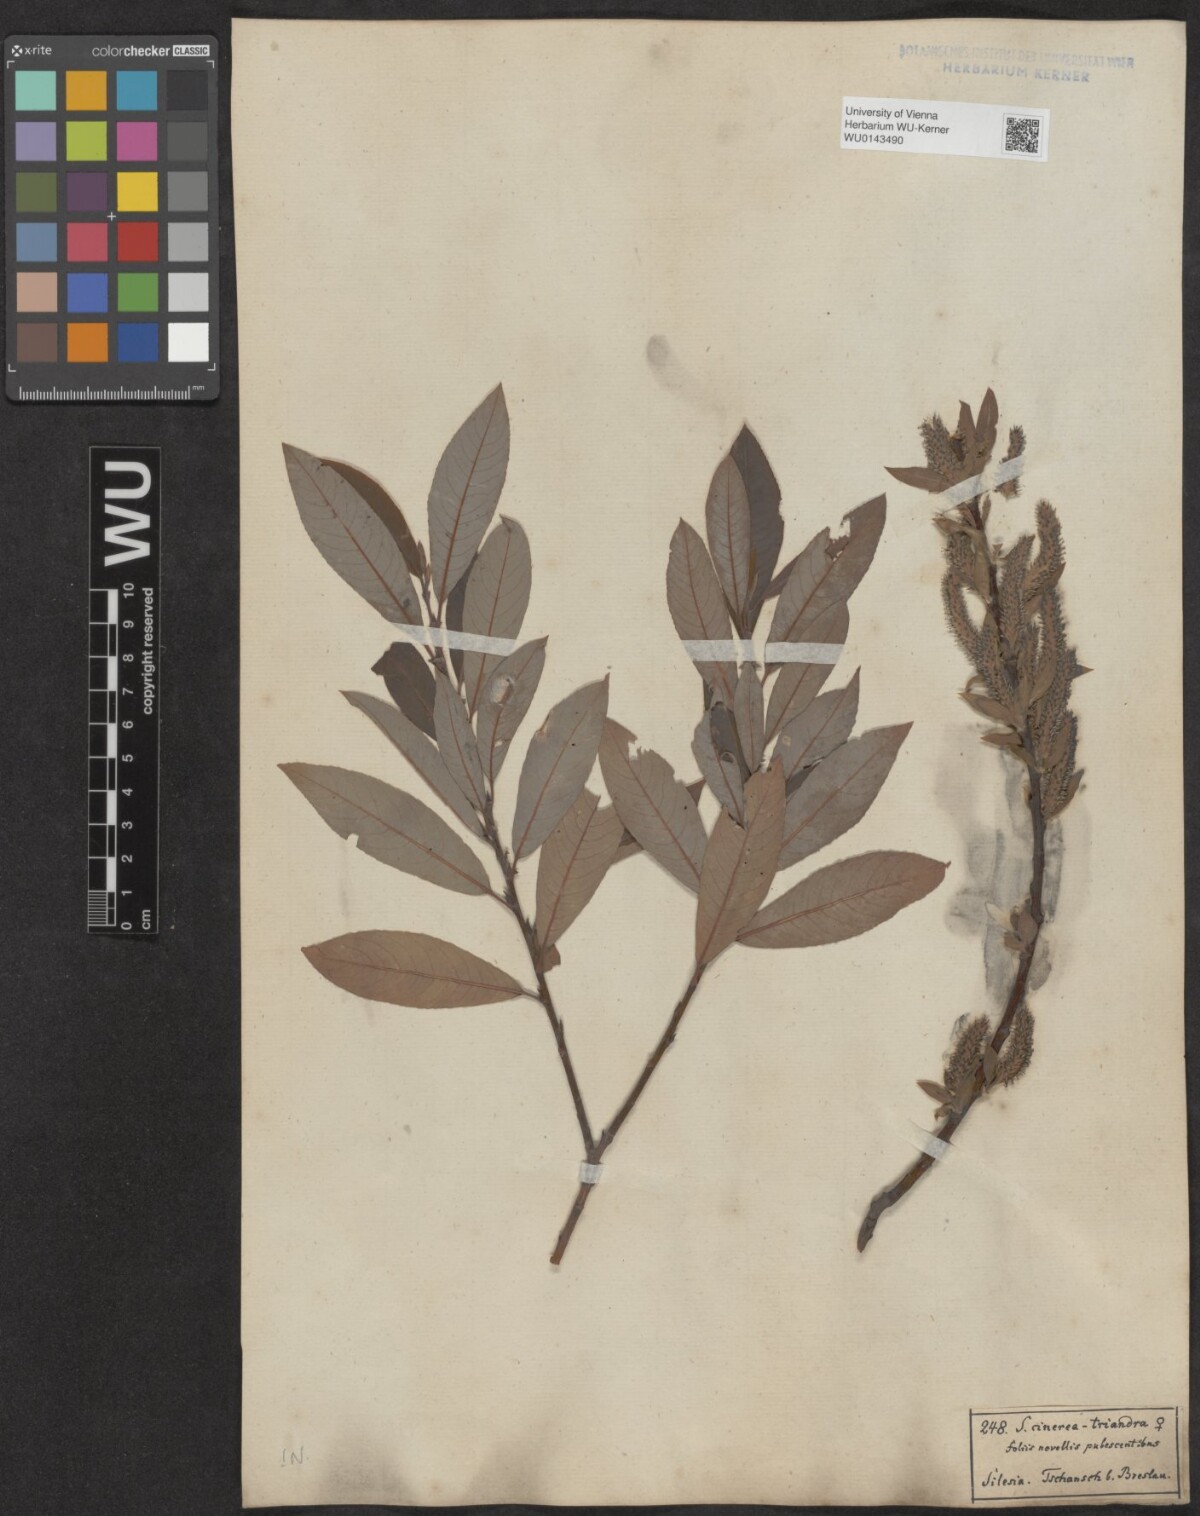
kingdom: Plantae
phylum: Tracheophyta
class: Magnoliopsida
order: Malpighiales
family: Salicaceae
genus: Salix
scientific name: Salix triandra
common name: Almond willow
